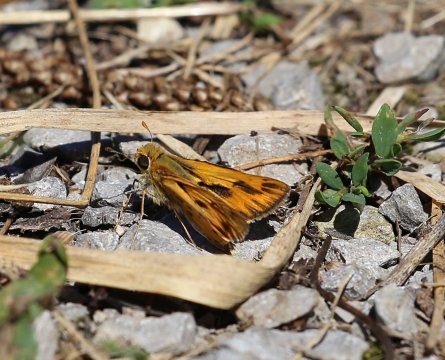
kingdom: Animalia
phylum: Arthropoda
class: Insecta
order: Lepidoptera
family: Hesperiidae
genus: Hylephila
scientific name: Hylephila phyleus
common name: Fiery Skipper
